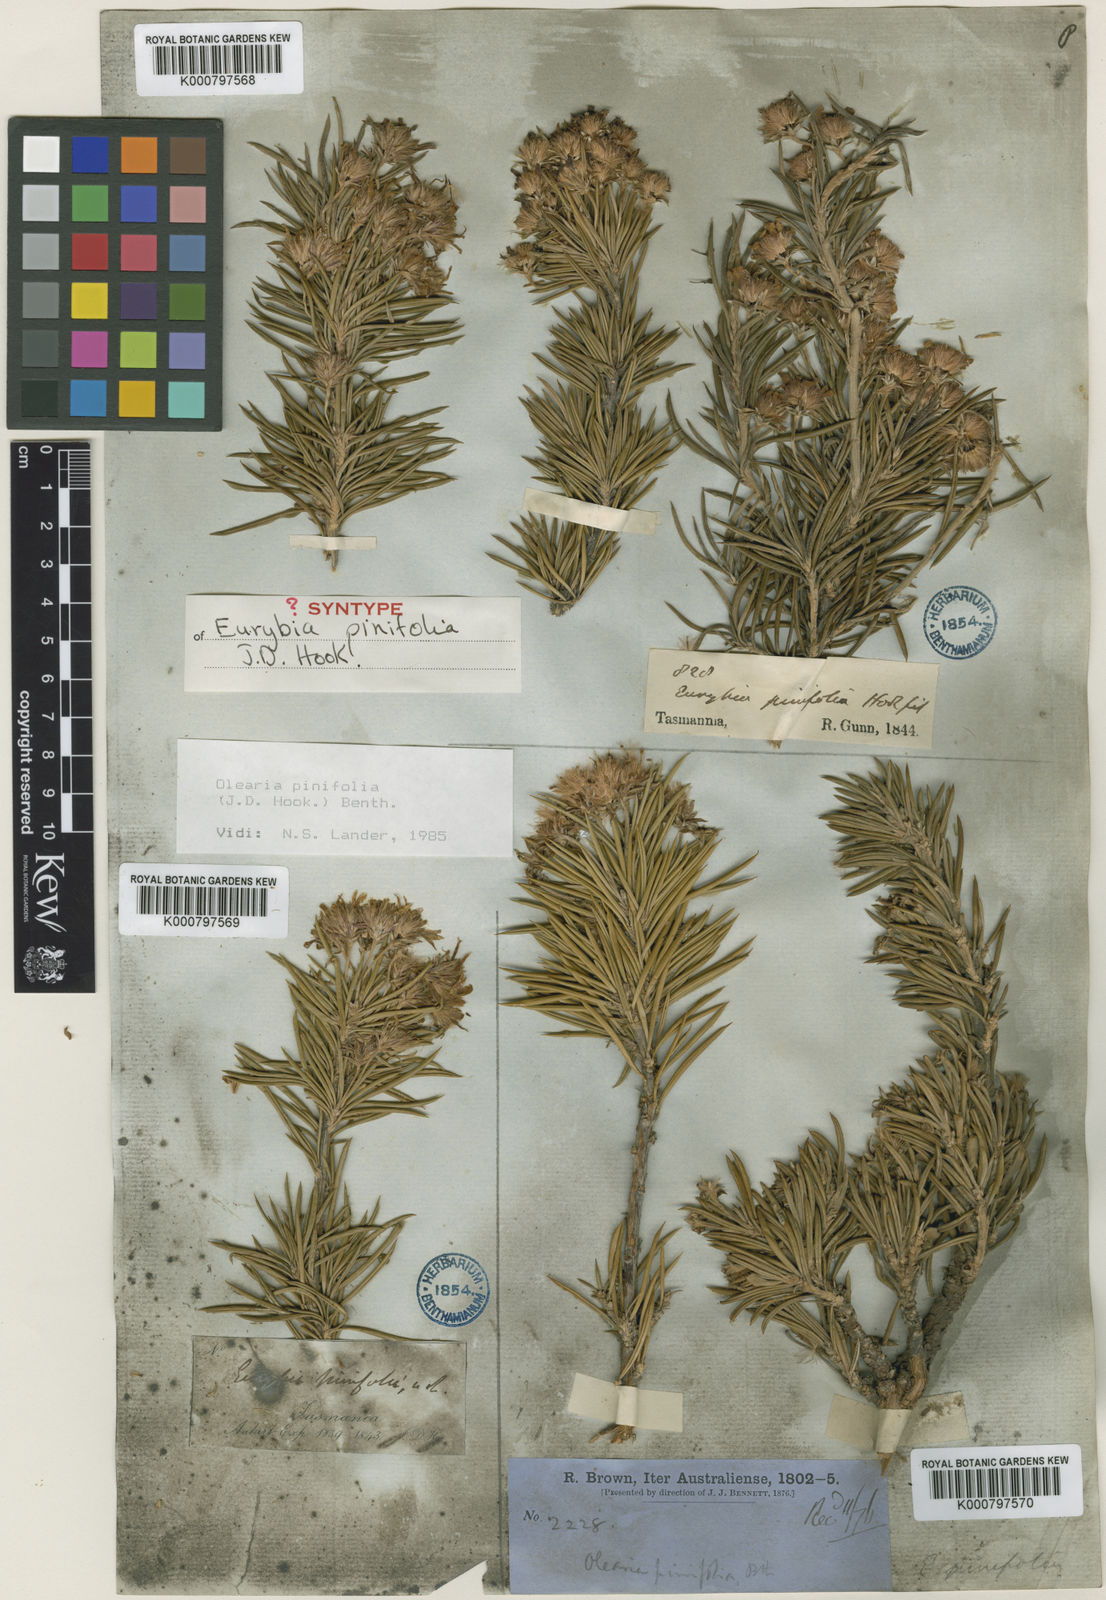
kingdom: Plantae
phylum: Tracheophyta
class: Magnoliopsida
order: Asterales
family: Asteraceae
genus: Olearia
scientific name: Olearia pinifolia
